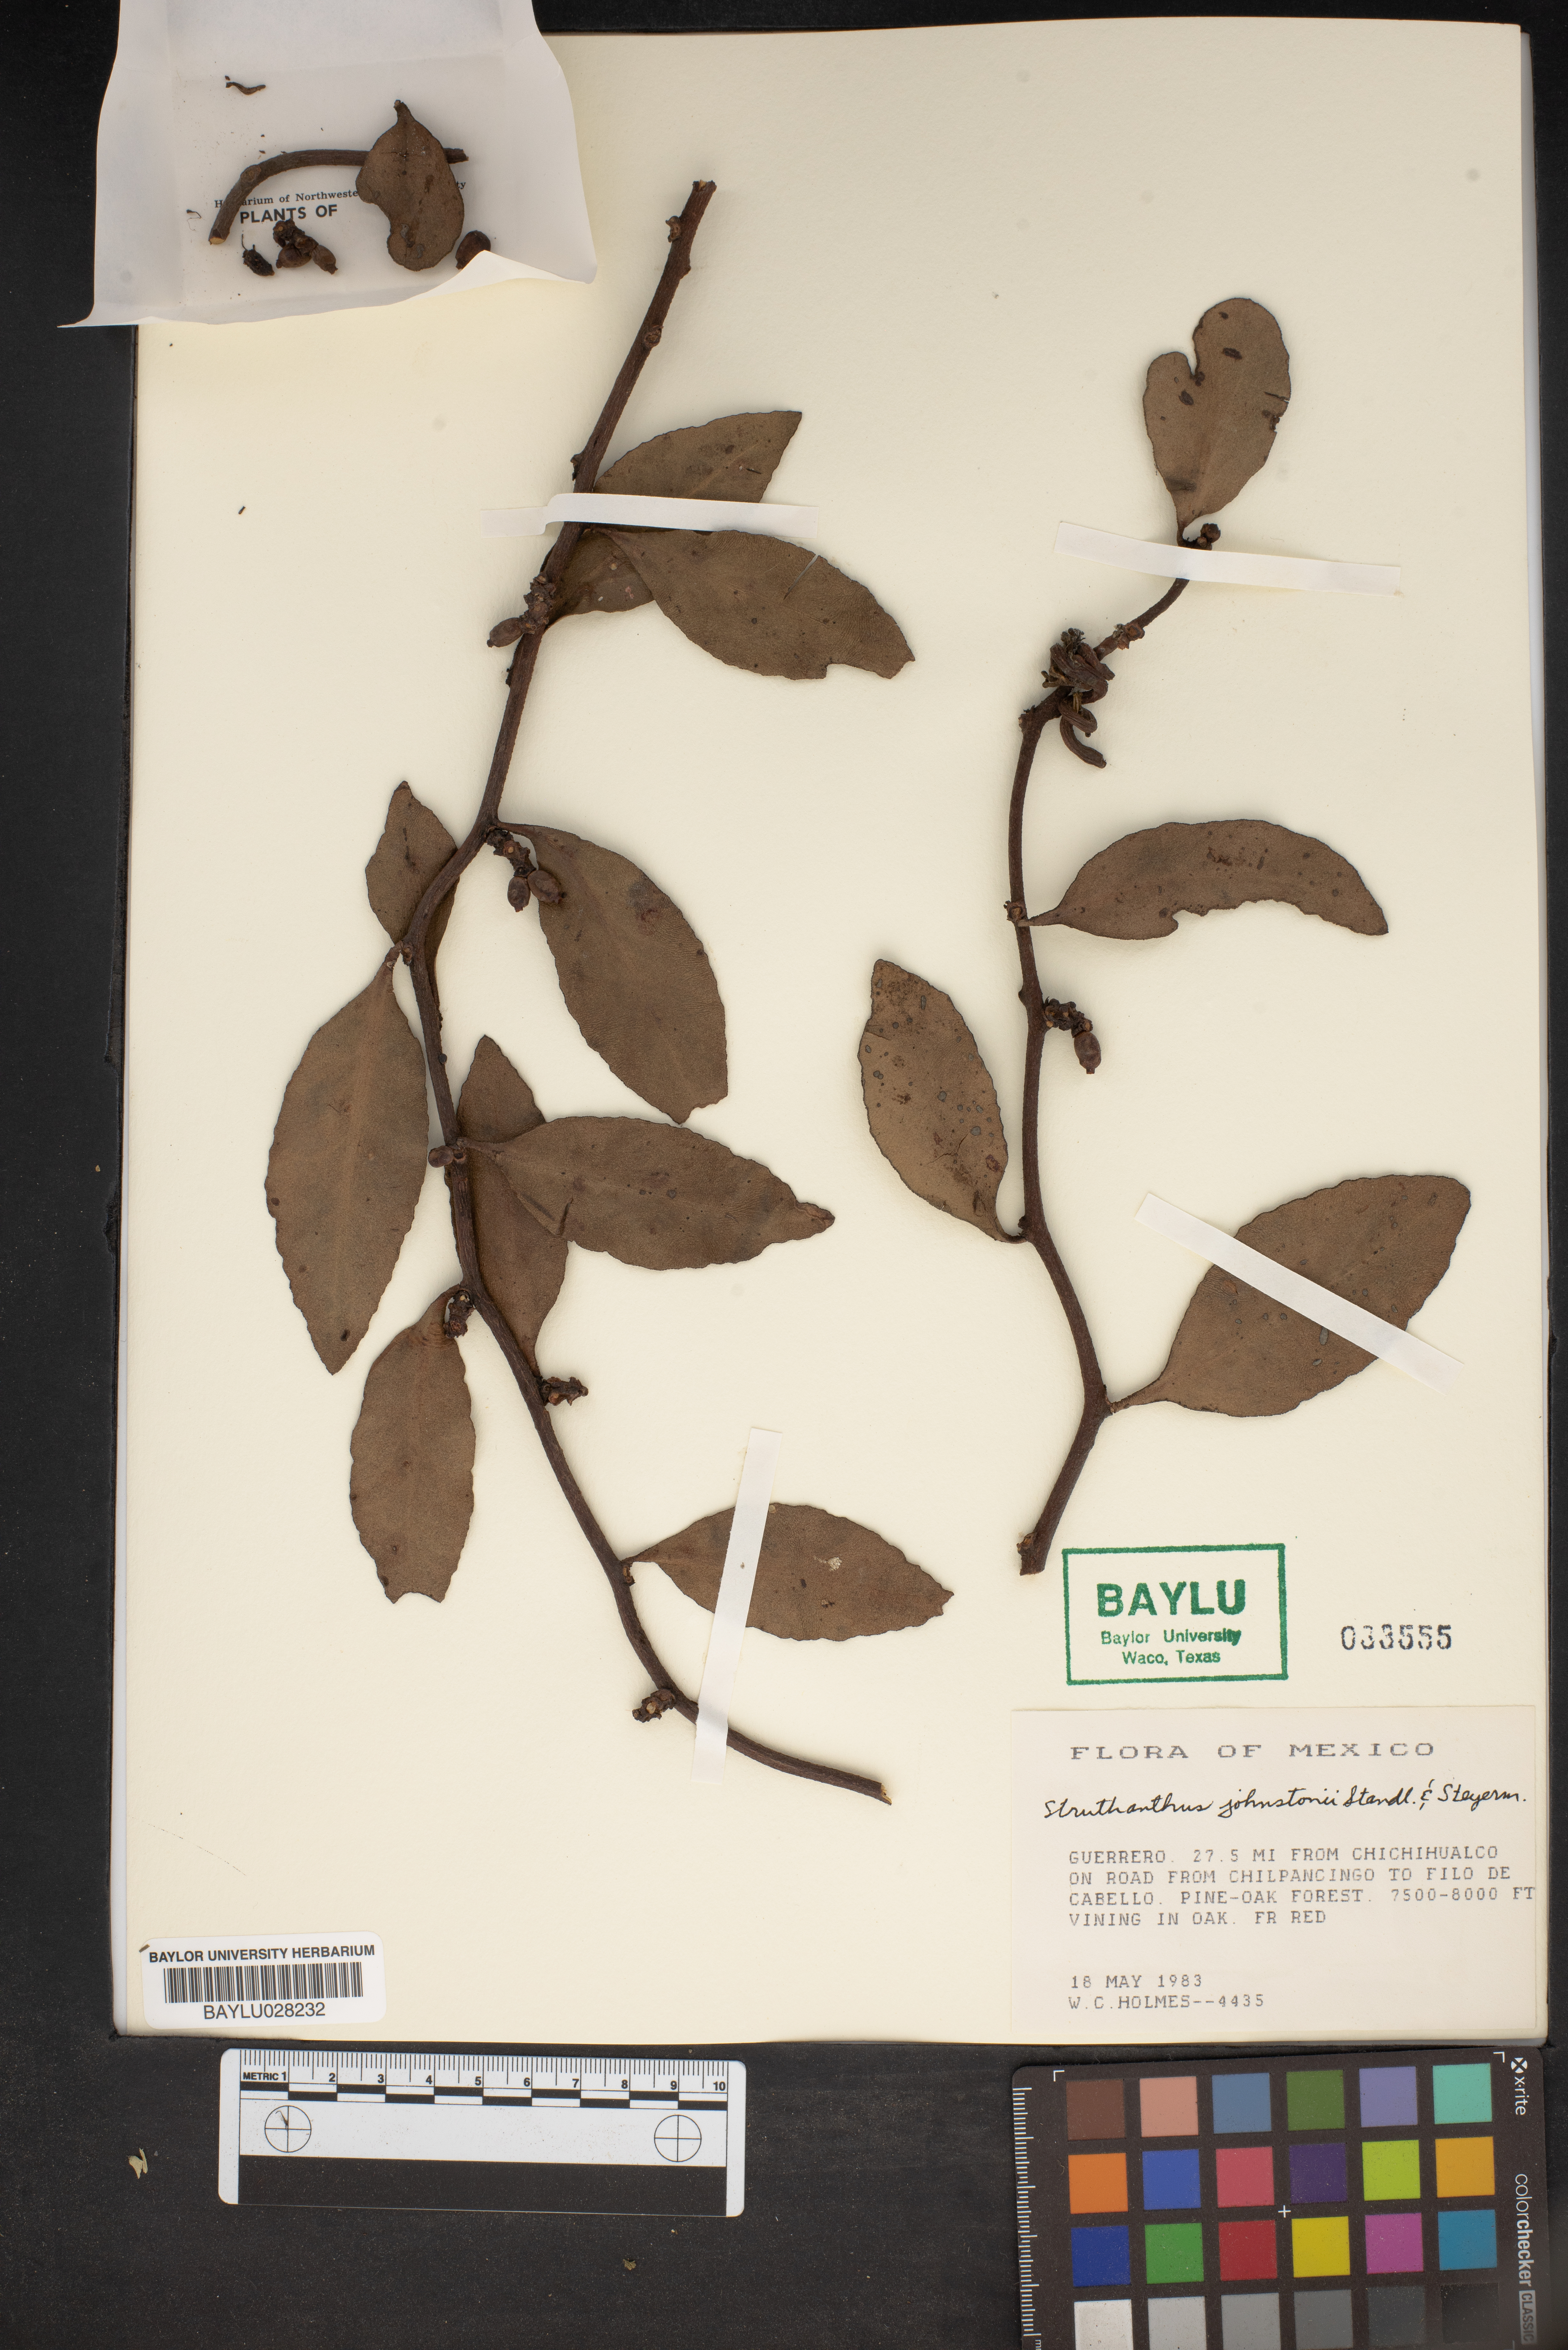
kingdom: Plantae
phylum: Tracheophyta
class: Magnoliopsida
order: Santalales
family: Loranthaceae
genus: Struthanthus
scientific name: Struthanthus capitatus
